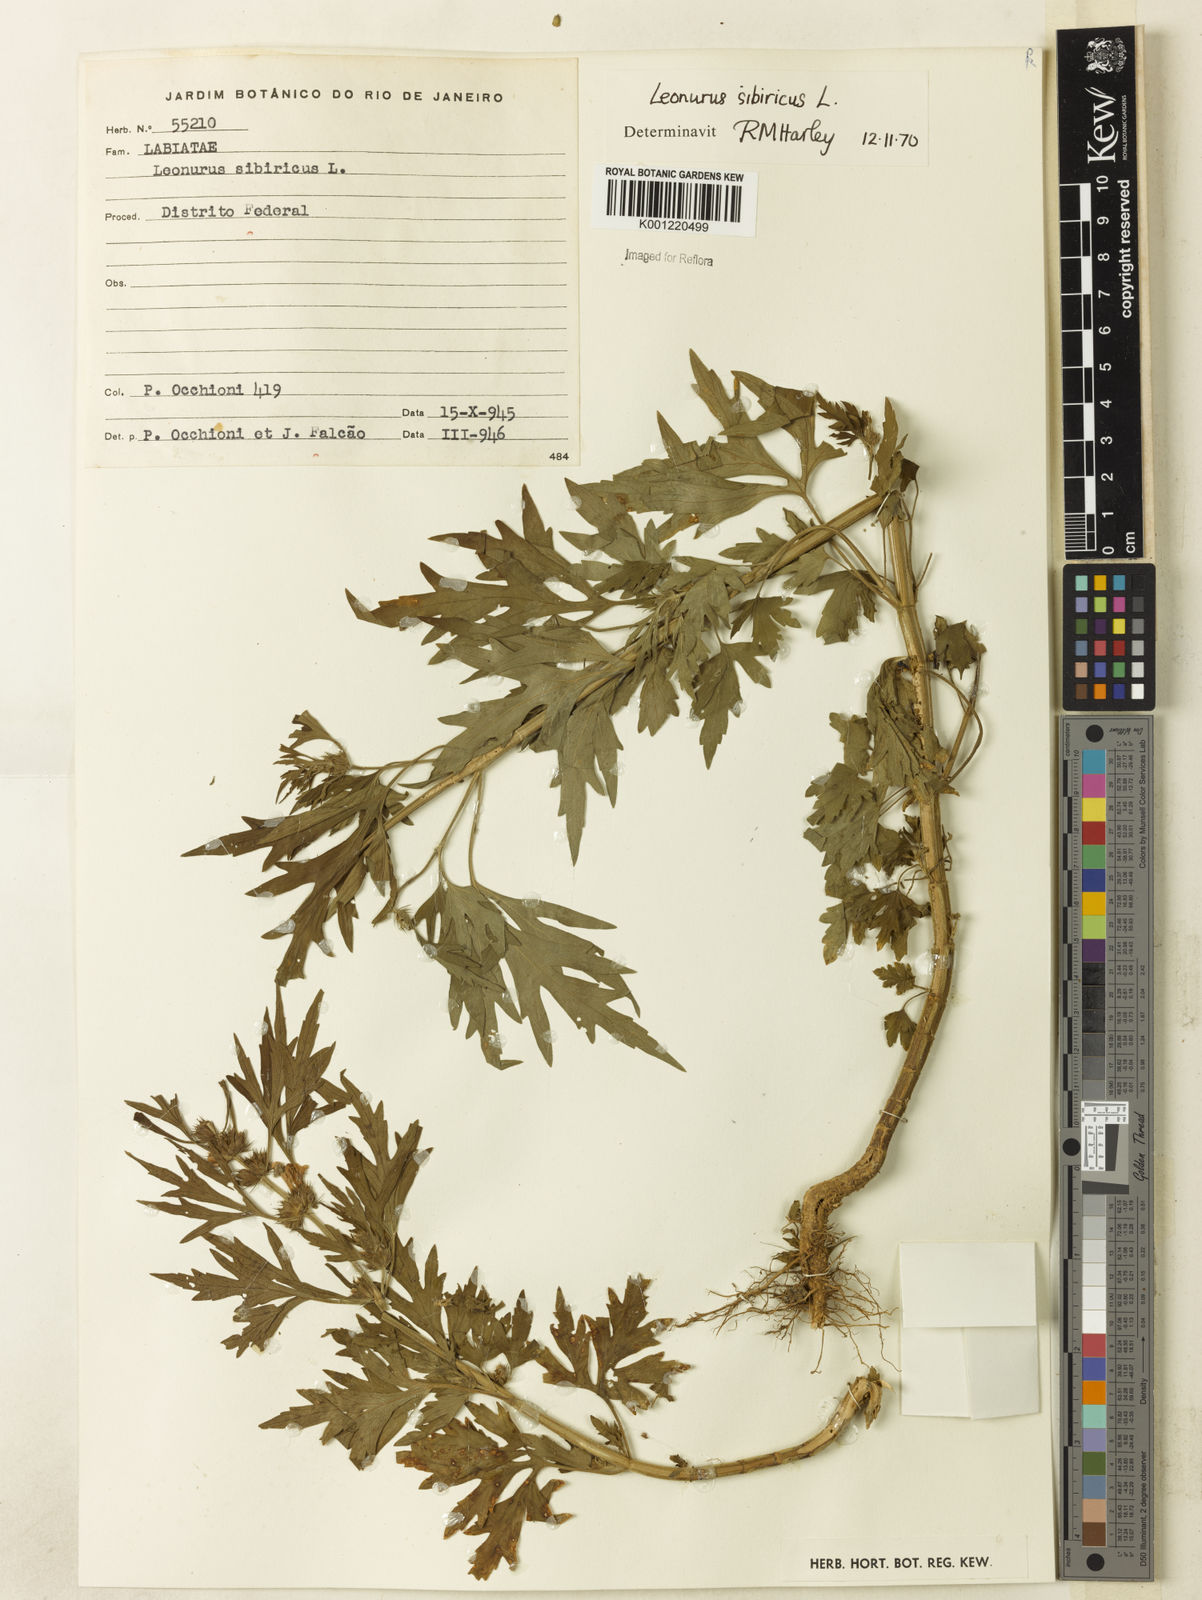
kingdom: Plantae
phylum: Tracheophyta
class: Magnoliopsida
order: Lamiales
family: Lamiaceae
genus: Leonurus
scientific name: Leonurus japonicus
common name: Honeyweed
